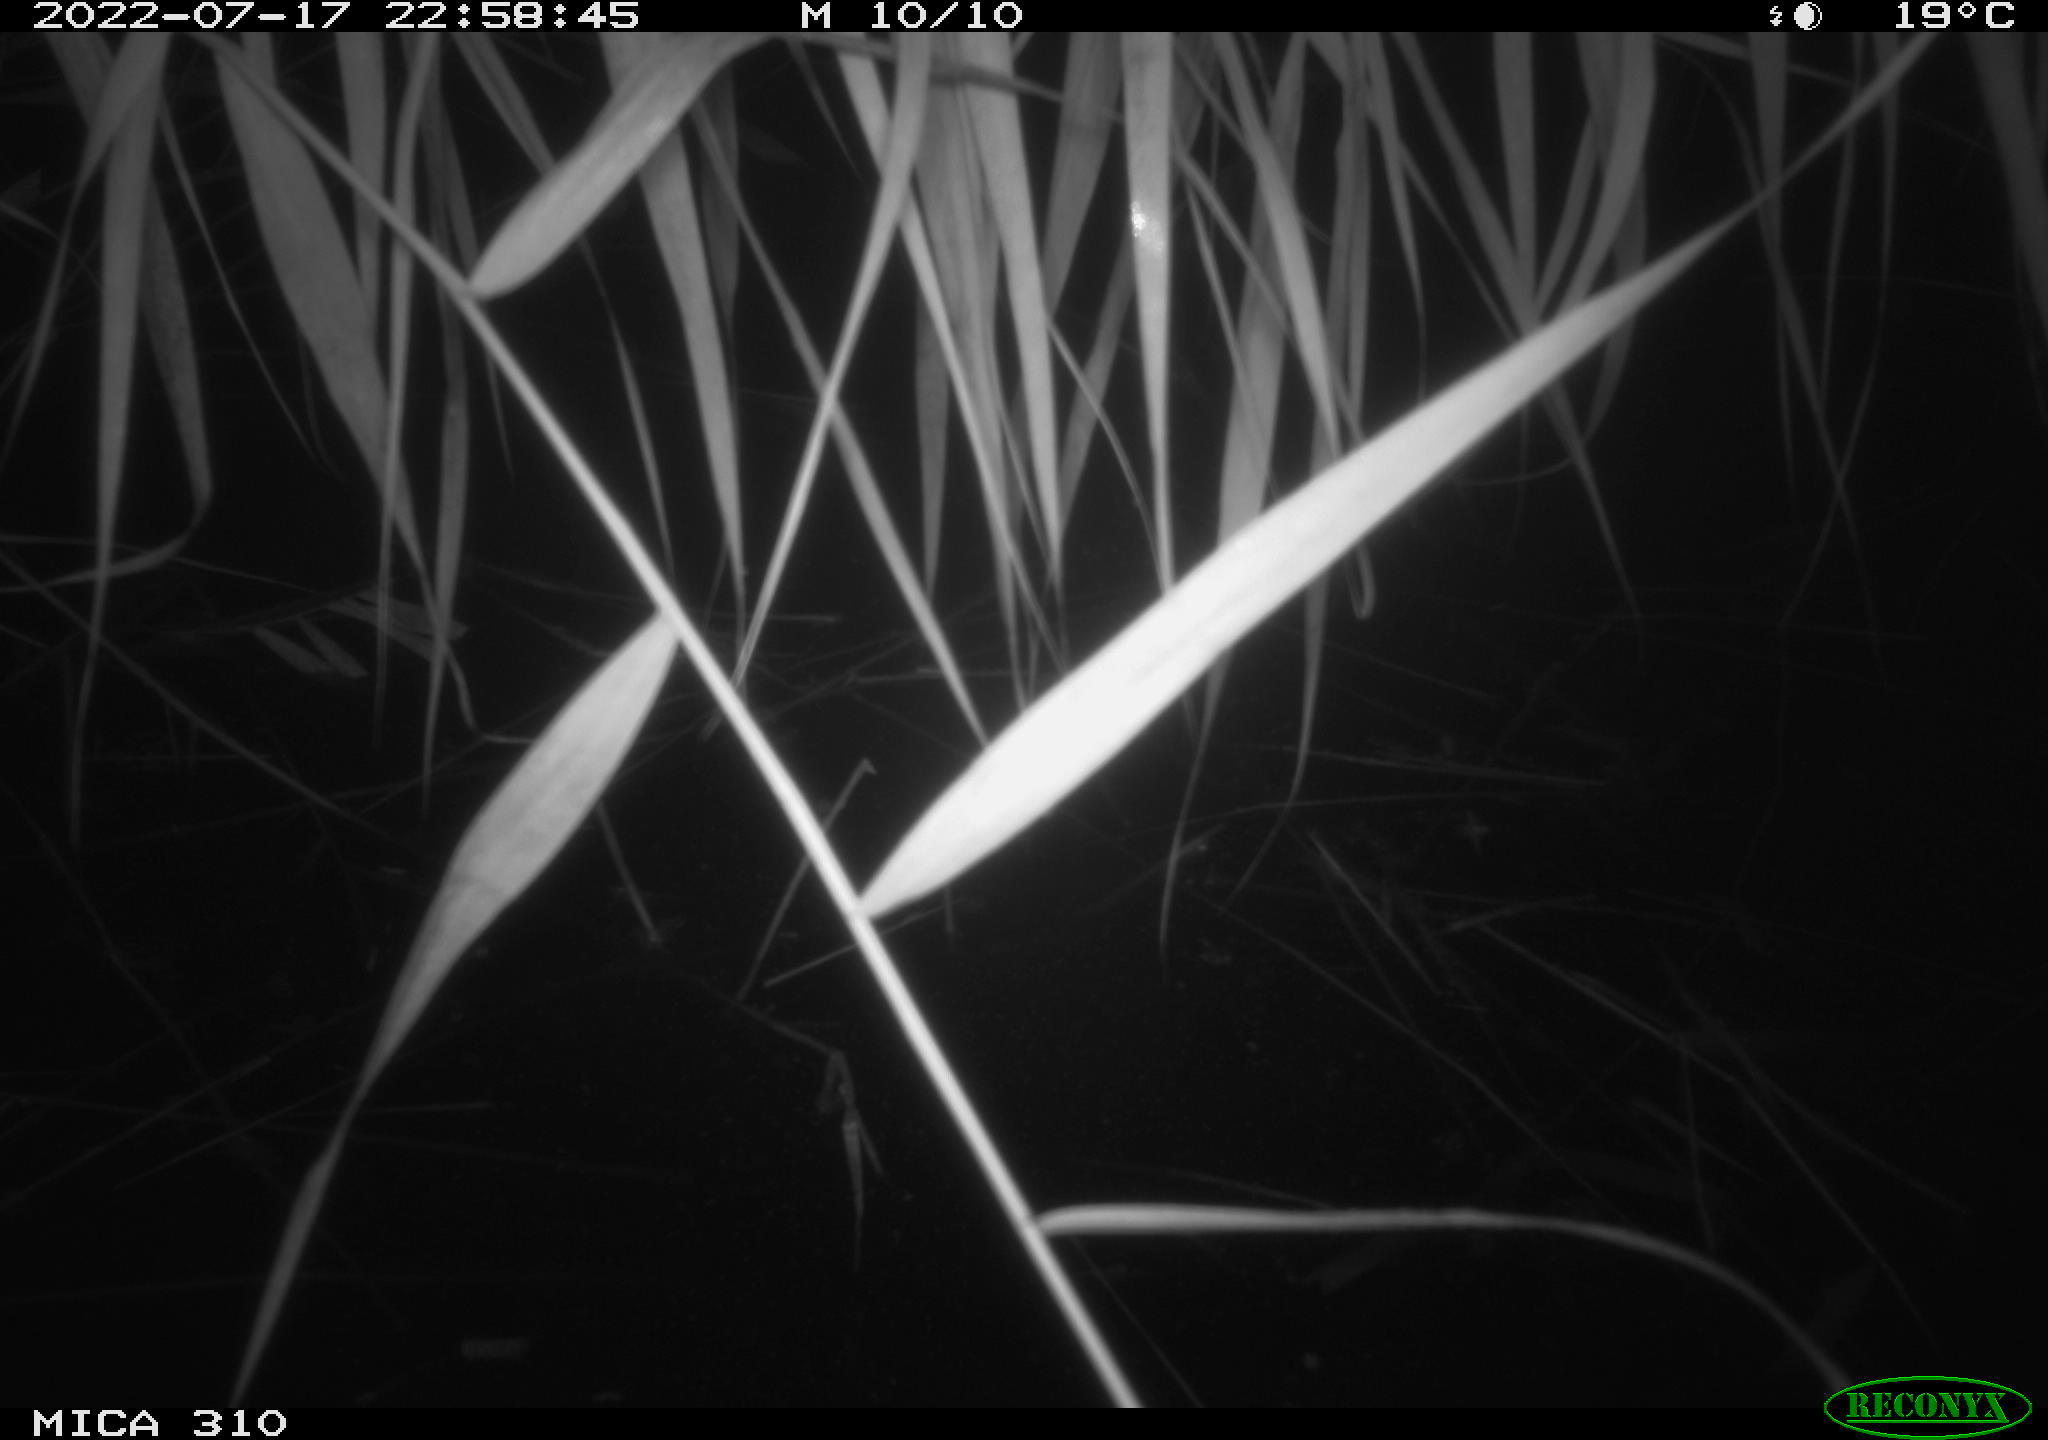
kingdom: Animalia
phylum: Chordata
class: Mammalia
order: Rodentia
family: Muridae
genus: Rattus
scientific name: Rattus norvegicus
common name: Brown rat
